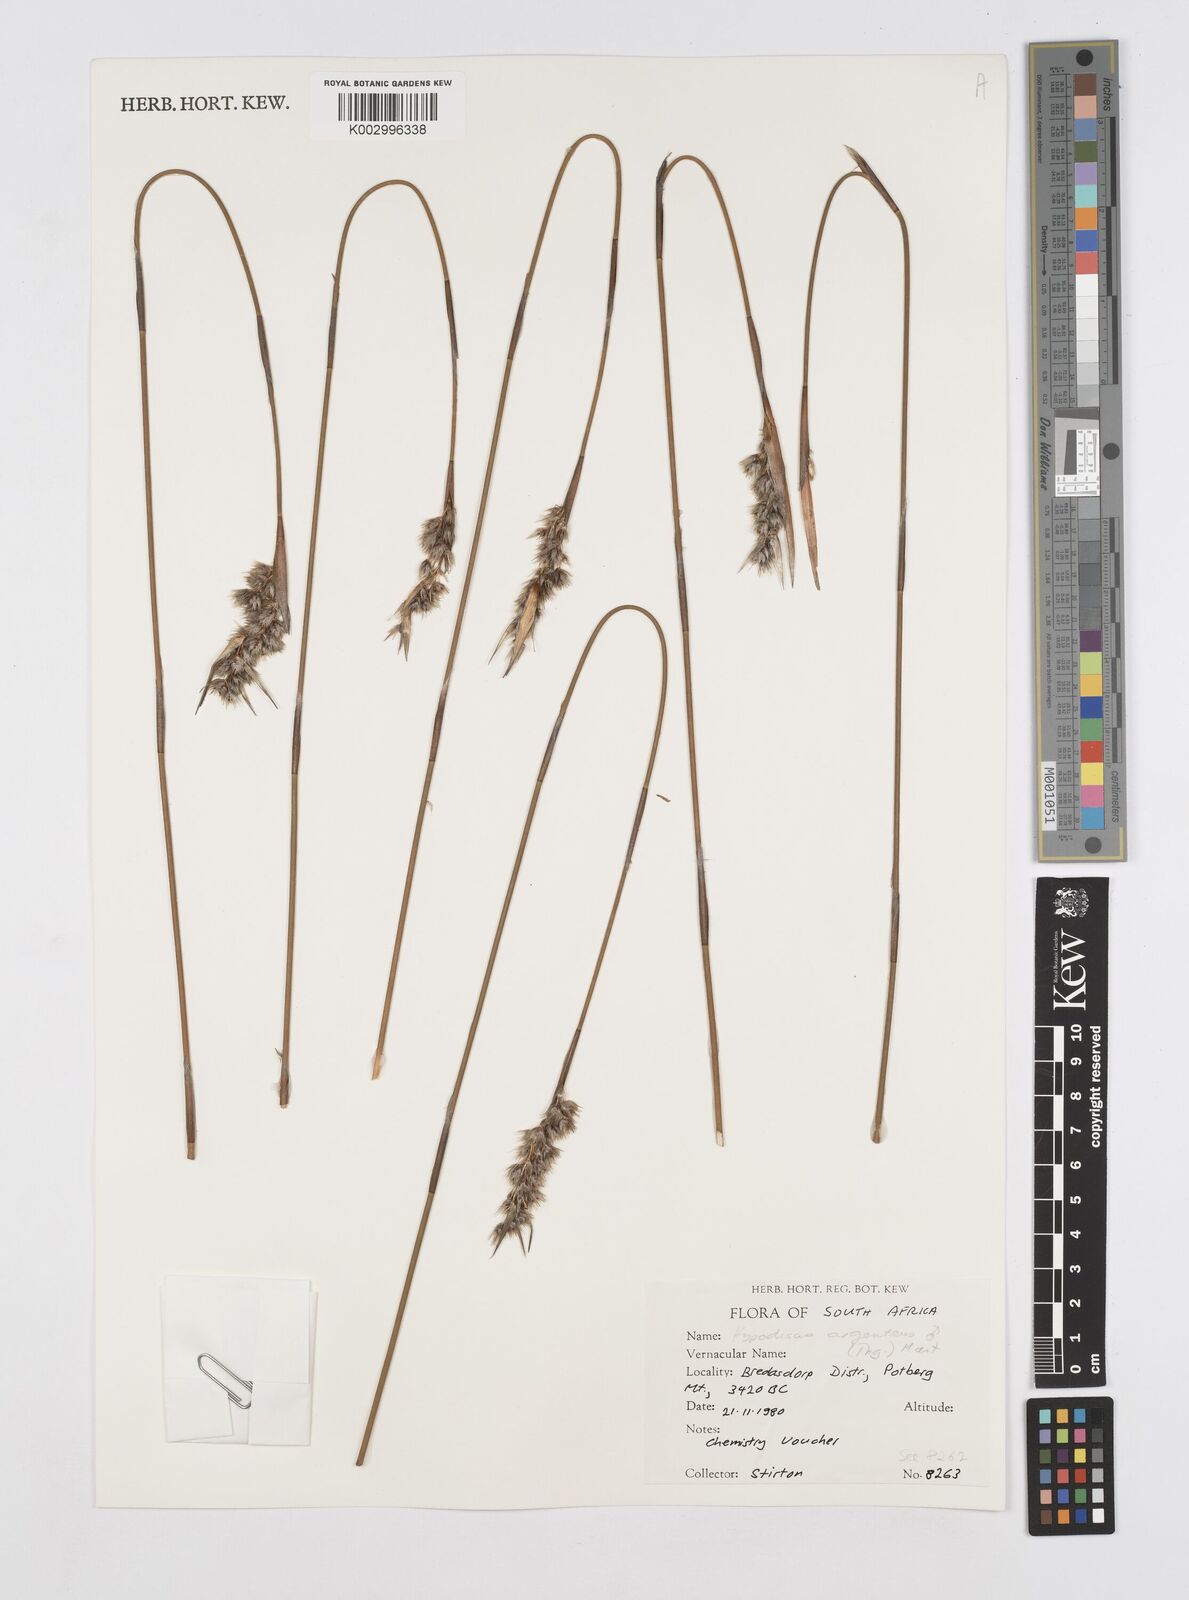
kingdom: Plantae
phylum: Tracheophyta
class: Liliopsida
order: Poales
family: Restionaceae
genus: Hypodiscus
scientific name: Hypodiscus argenteus
